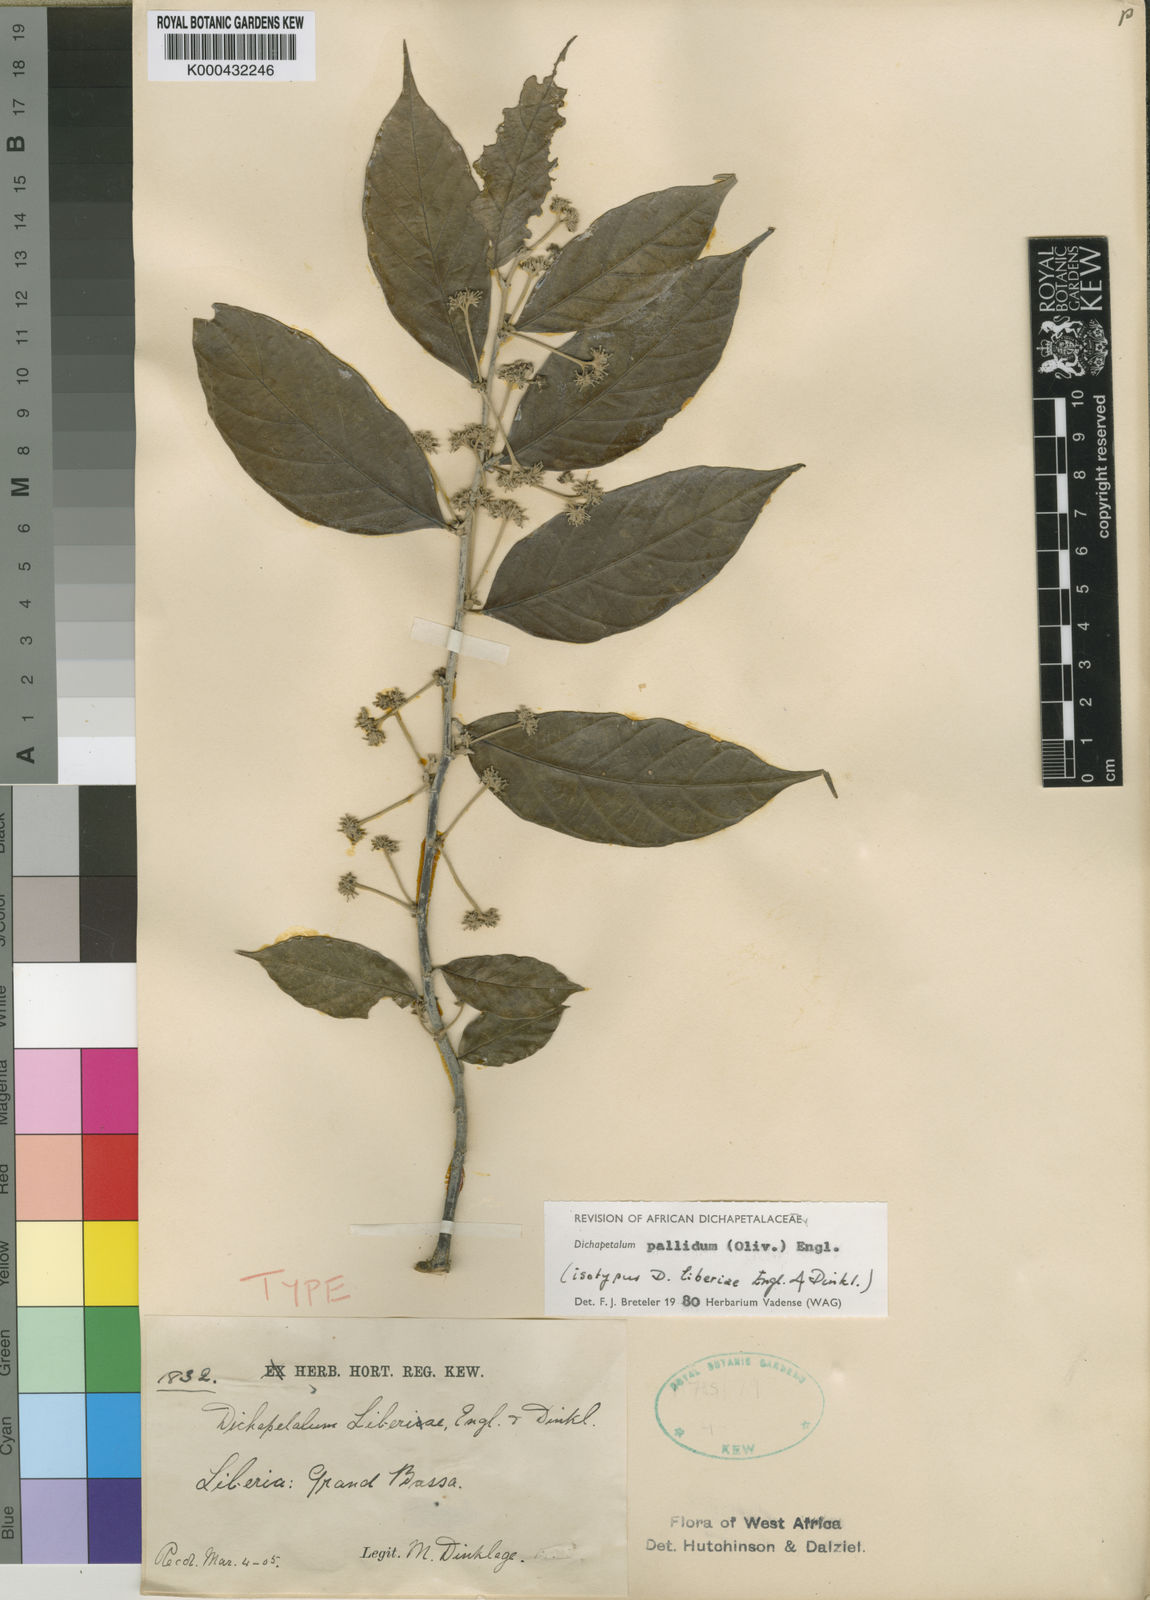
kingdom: Plantae
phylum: Tracheophyta
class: Magnoliopsida
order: Malpighiales
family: Dichapetalaceae
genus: Dichapetalum
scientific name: Dichapetalum pallidum
